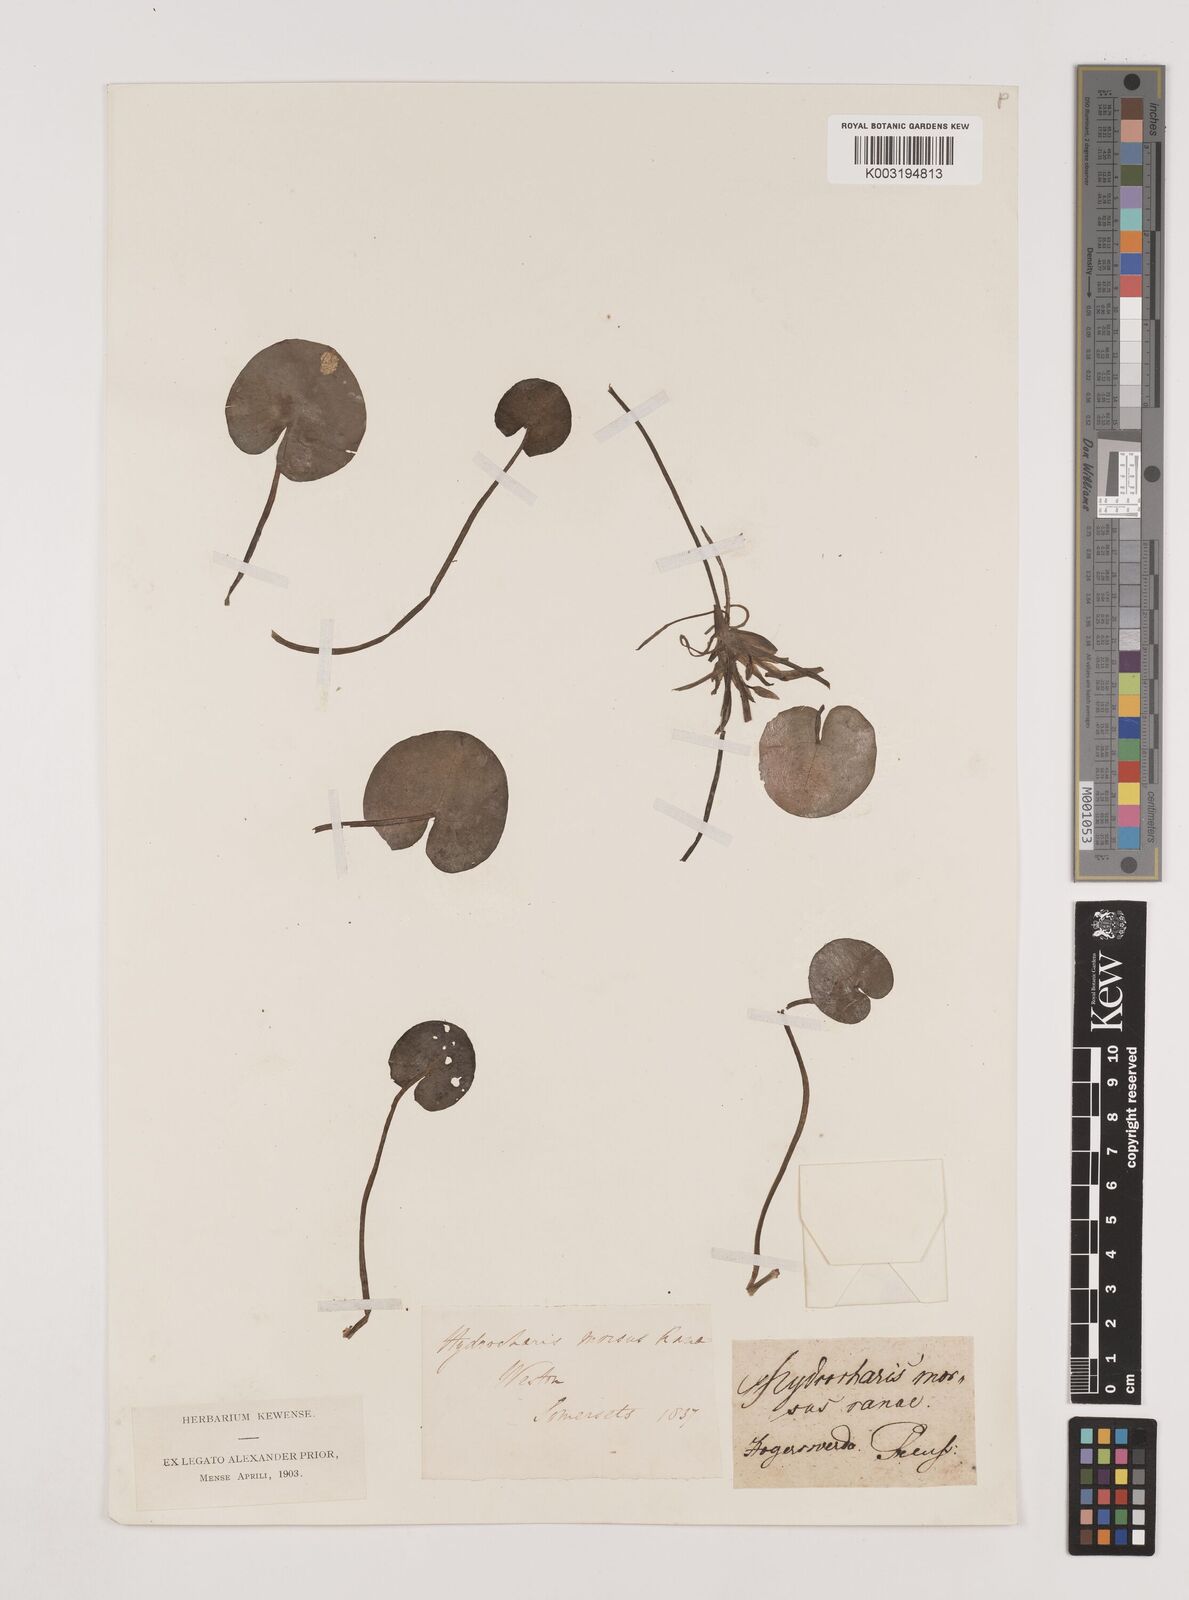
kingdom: Plantae
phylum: Tracheophyta
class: Liliopsida
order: Alismatales
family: Hydrocharitaceae
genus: Hydrocharis
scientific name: Hydrocharis morsus-ranae
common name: Frogbit
